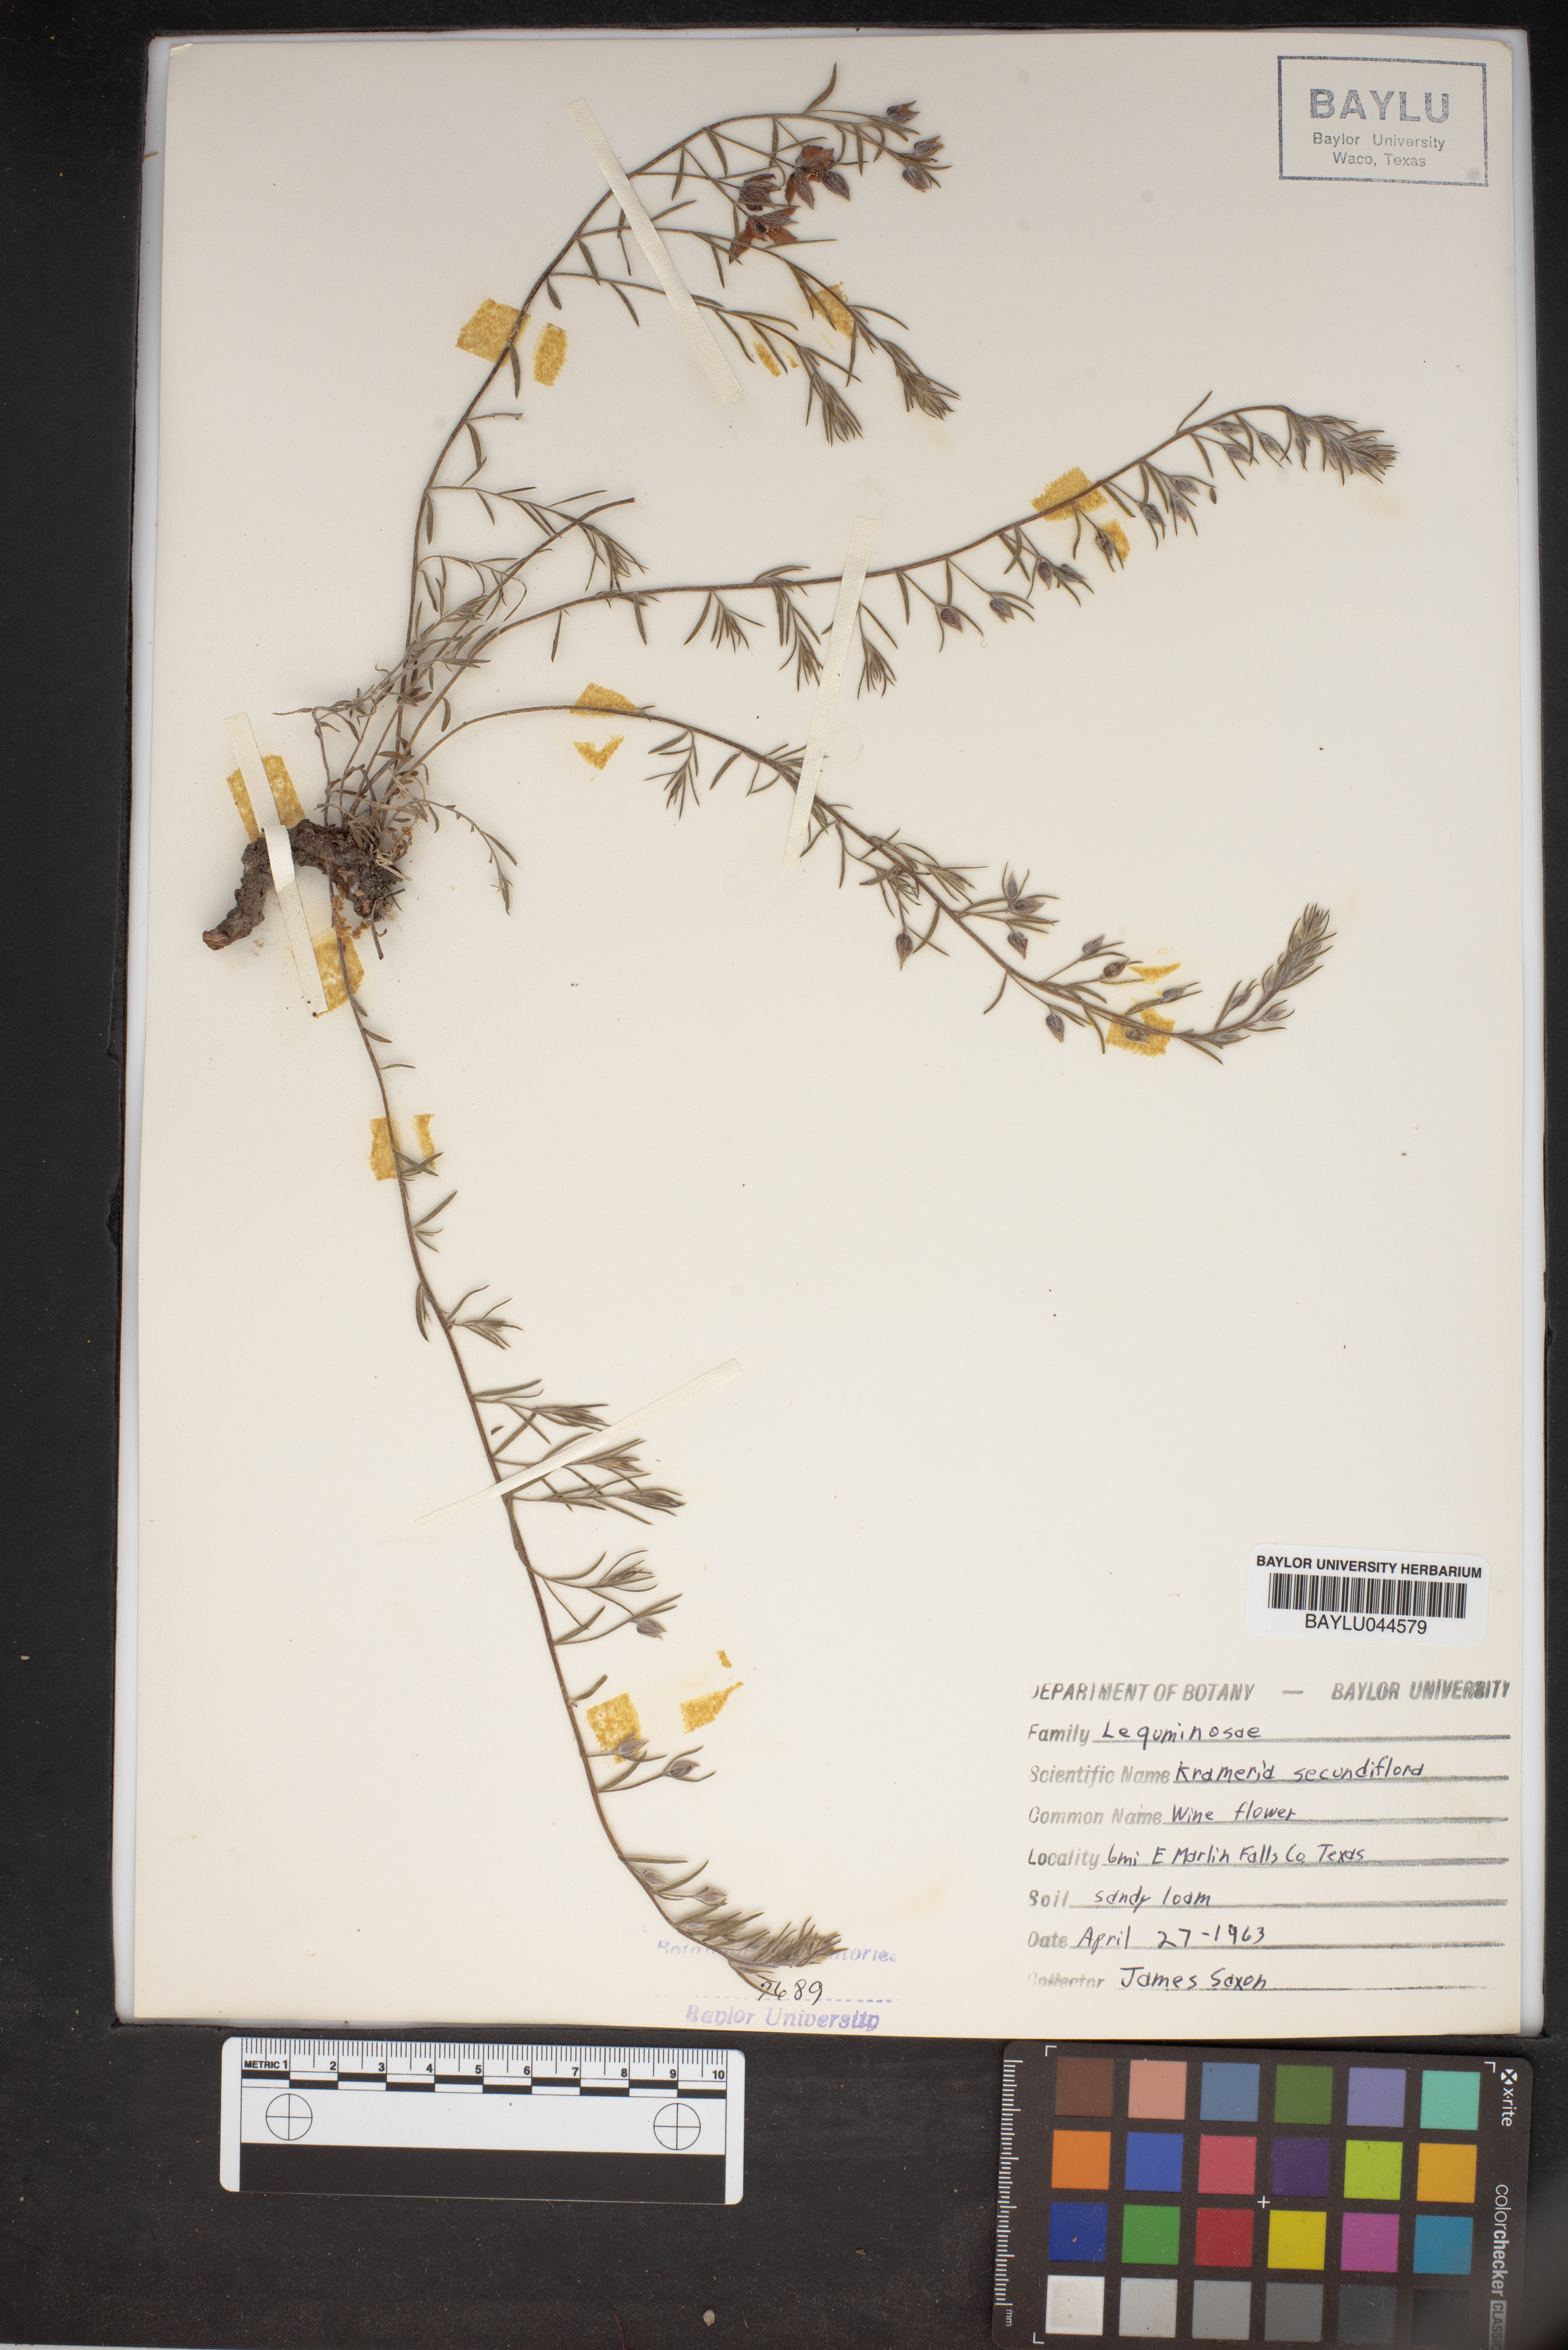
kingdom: Plantae
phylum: Tracheophyta
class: Magnoliopsida
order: Zygophyllales
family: Krameriaceae
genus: Krameria
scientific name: Krameria secundiflora
